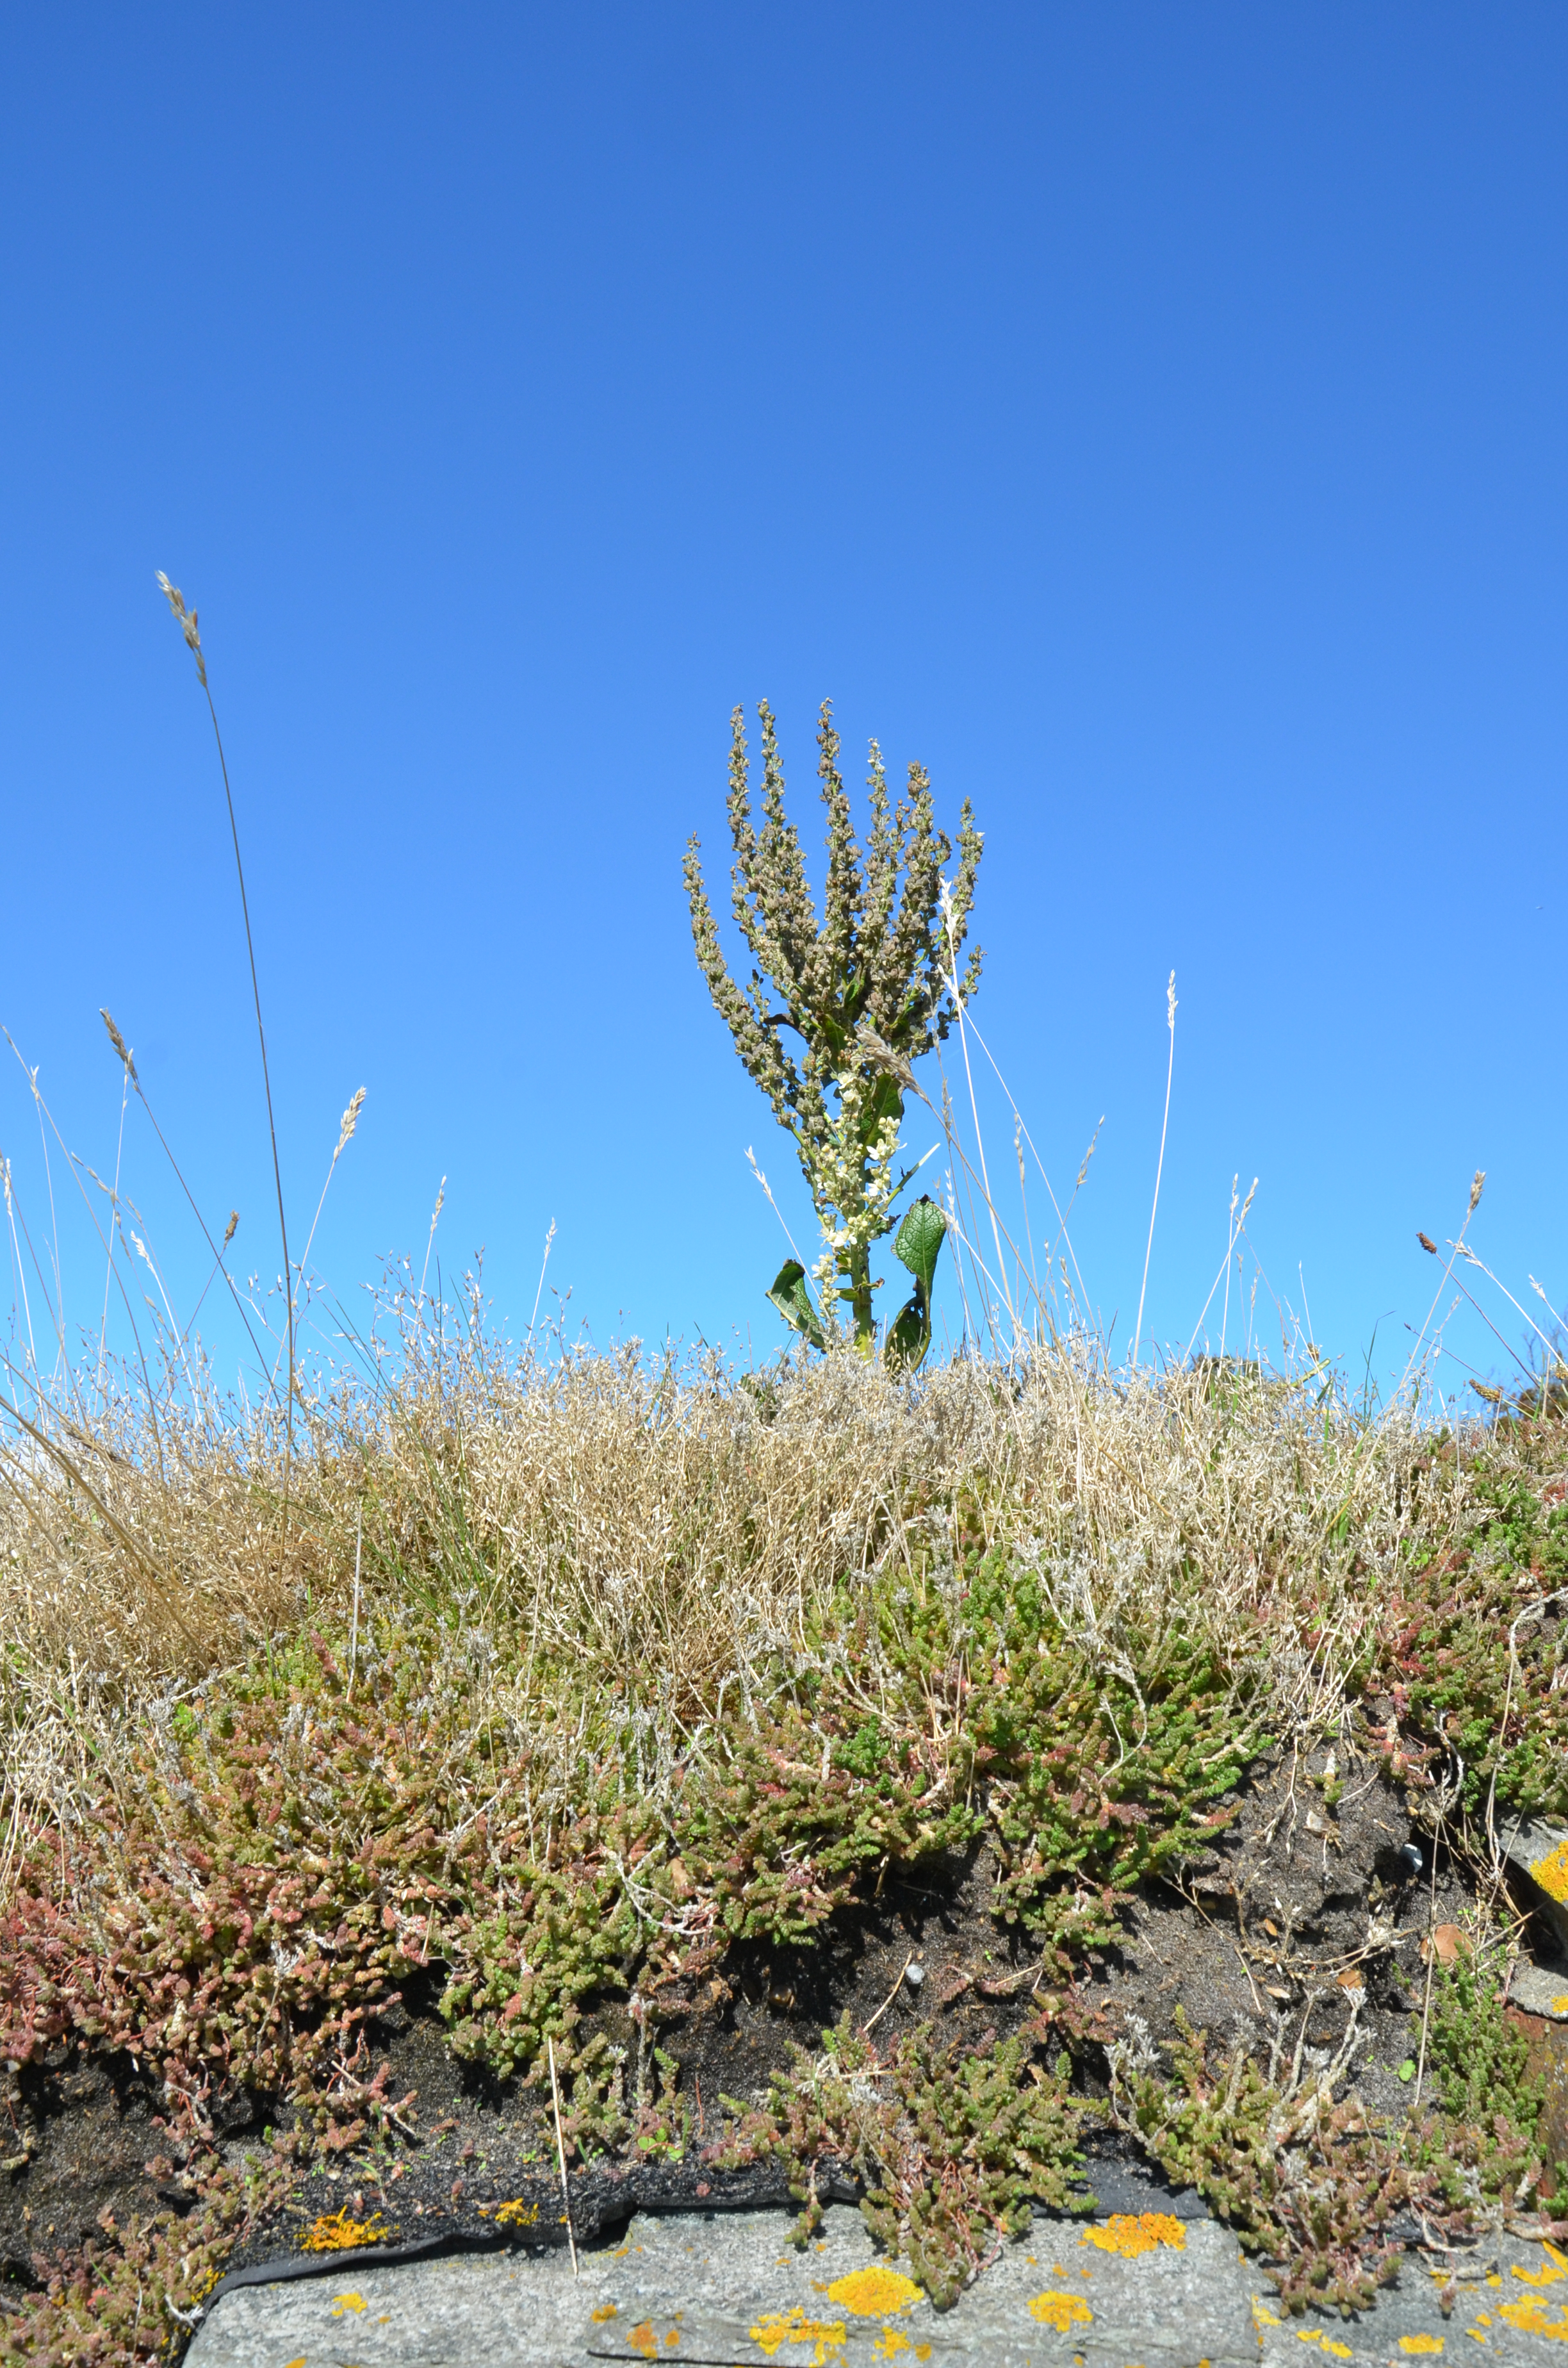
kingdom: Plantae
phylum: Tracheophyta
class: Magnoliopsida
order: Lamiales
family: Scrophulariaceae
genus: Verbascum
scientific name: Verbascum lychnitis
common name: White mullein
